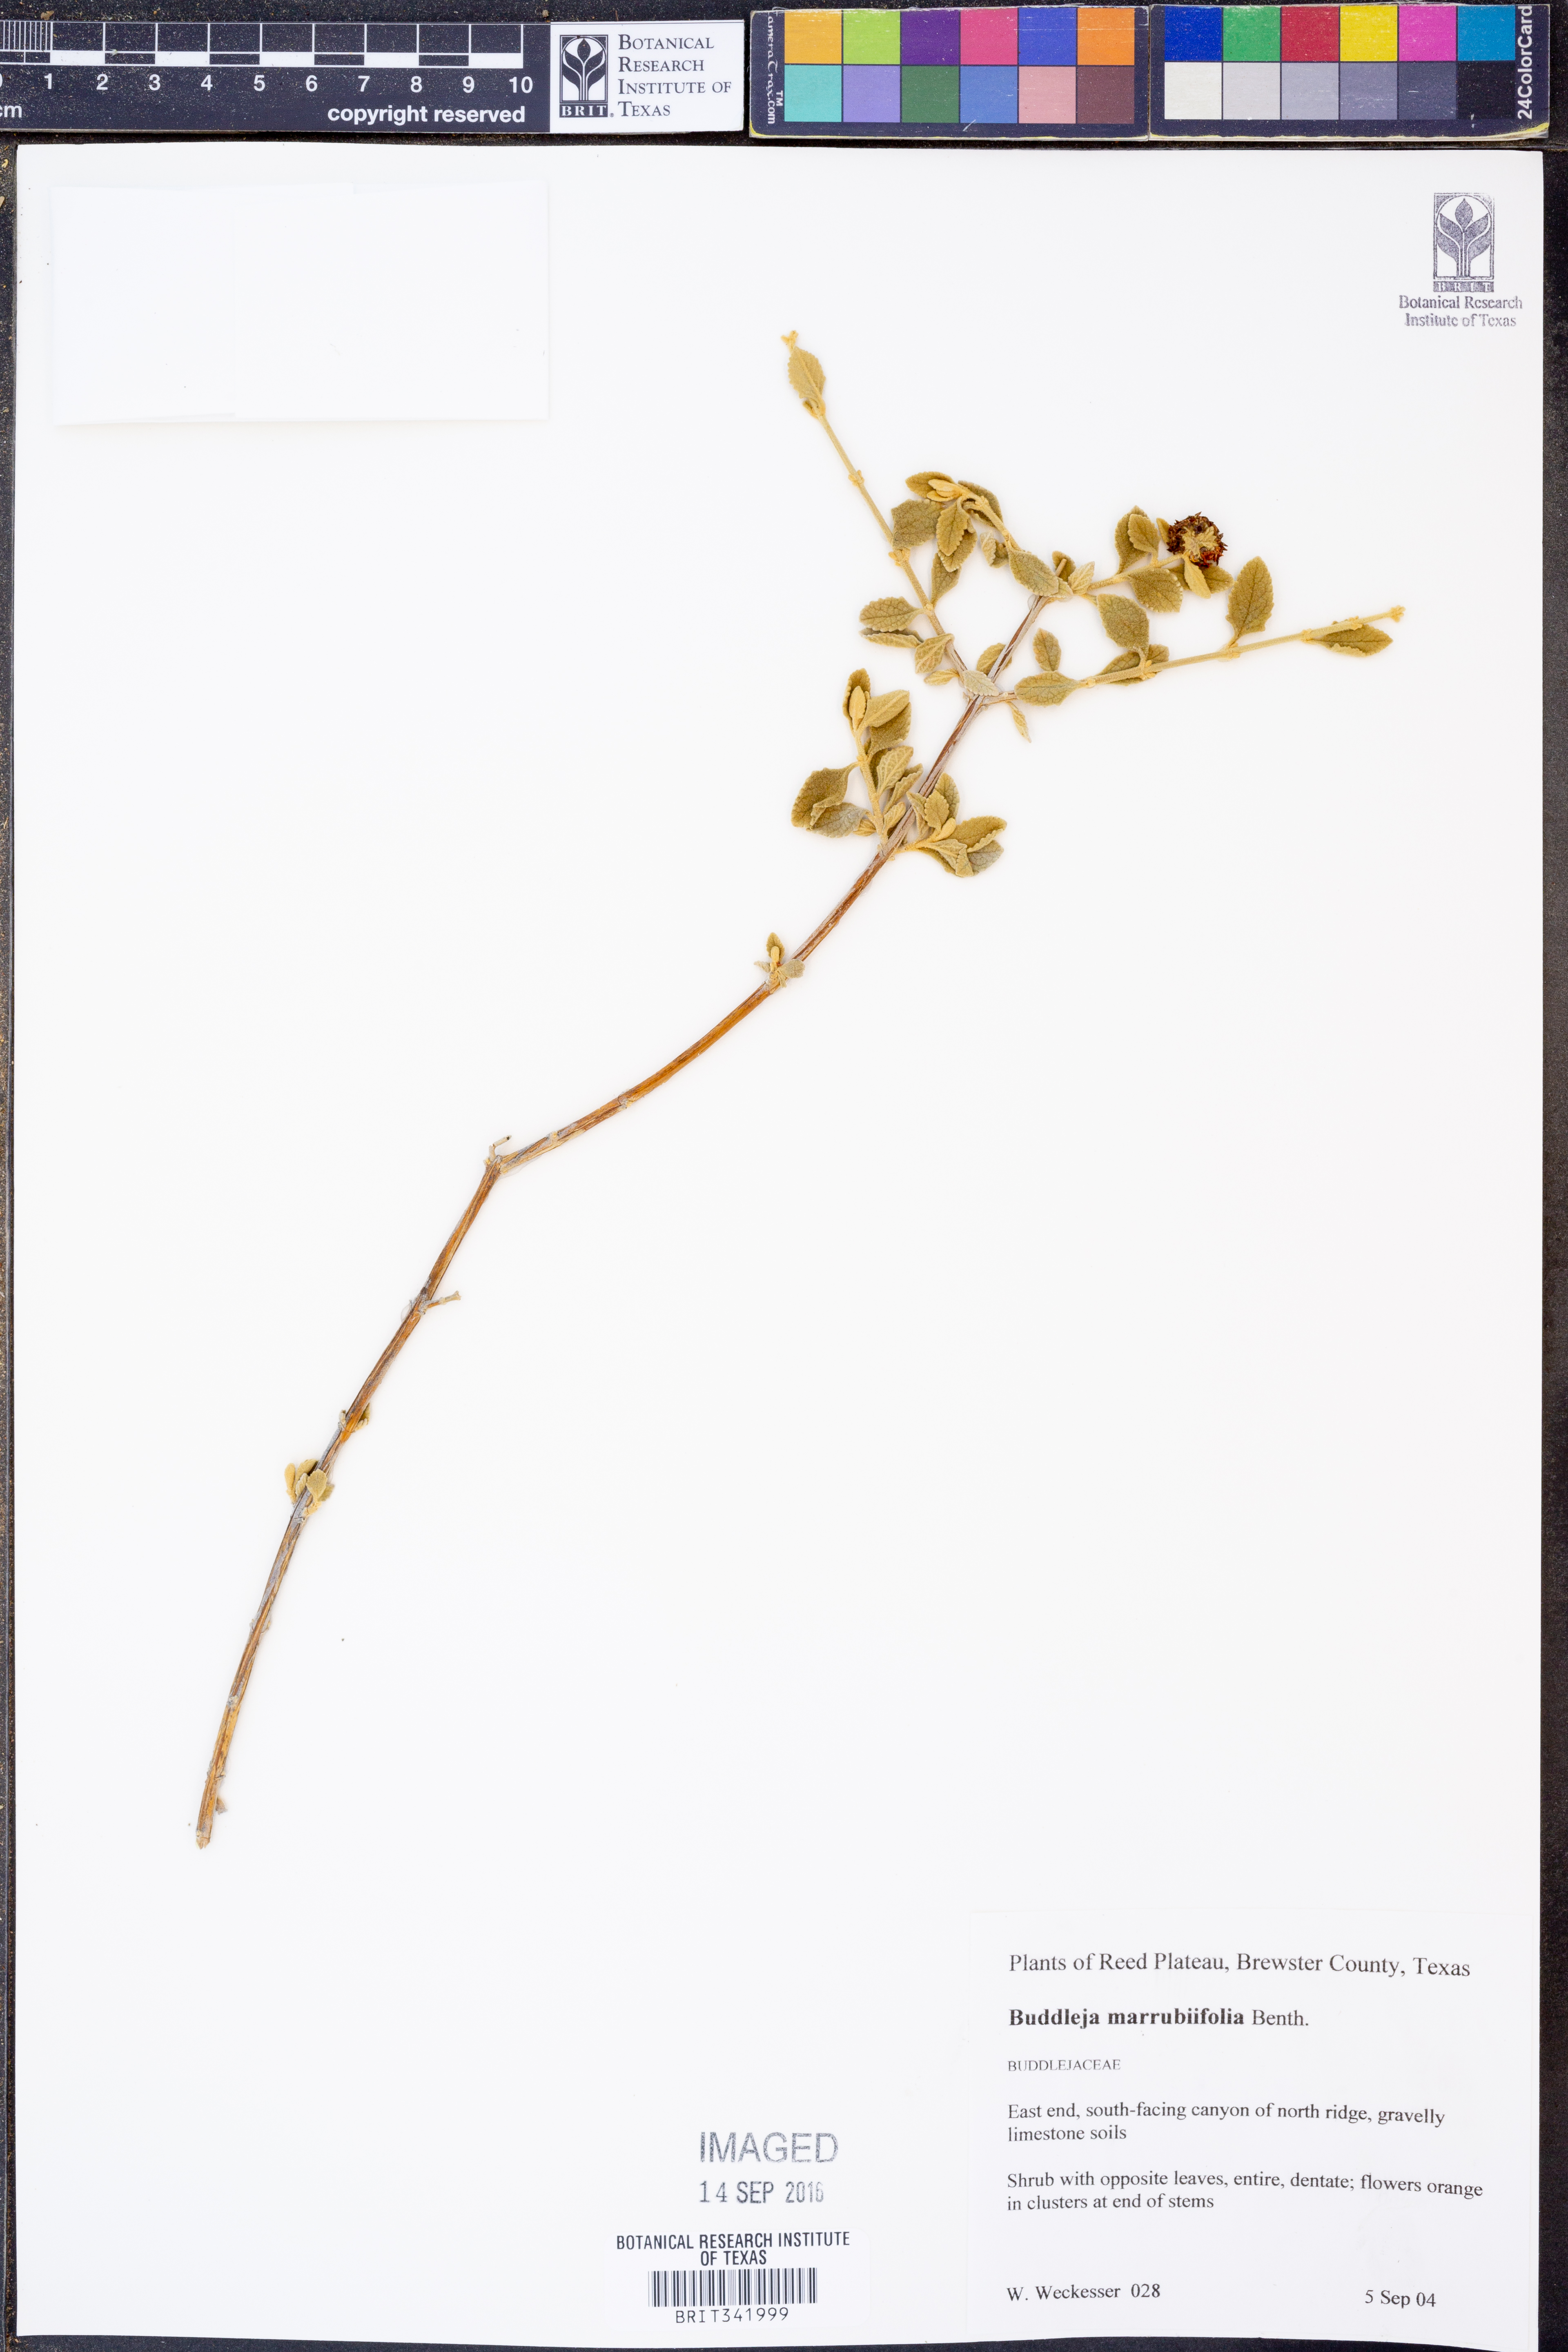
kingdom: Plantae
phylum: Tracheophyta
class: Magnoliopsida
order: Lamiales
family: Scrophulariaceae
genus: Buddleja
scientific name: Buddleja marrubiifolia
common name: Woolly butterfly-bush
